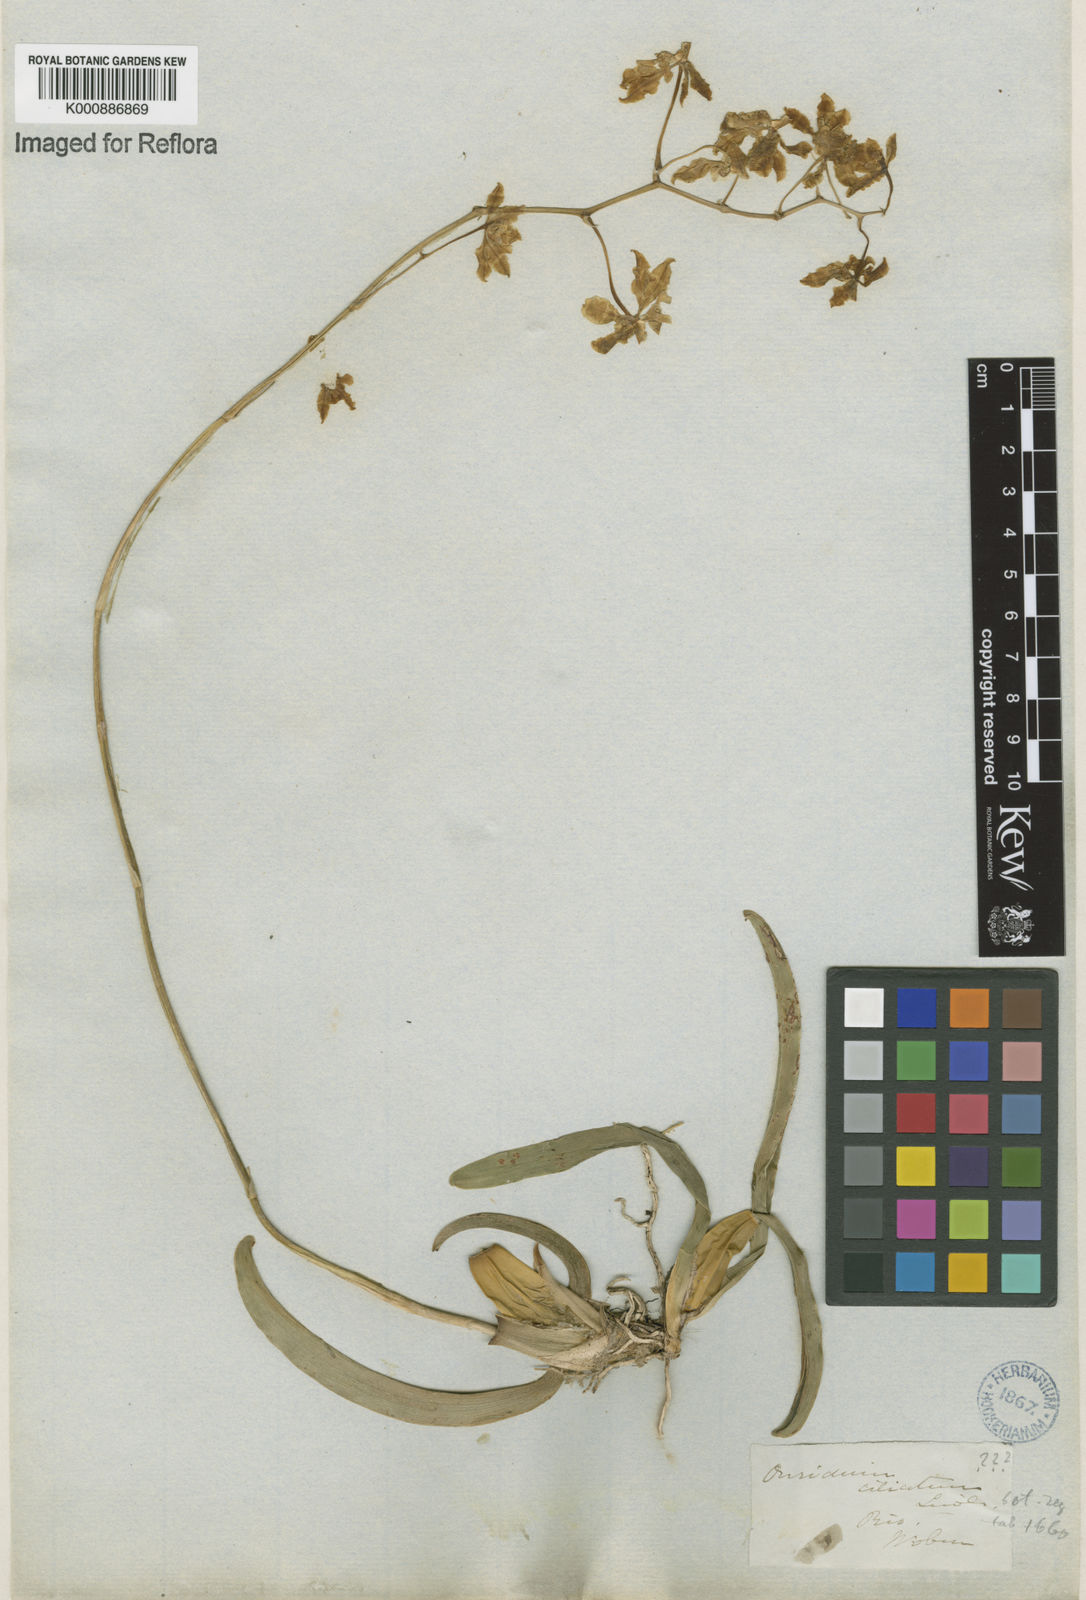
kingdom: Plantae
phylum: Tracheophyta
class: Liliopsida
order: Asparagales
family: Orchidaceae
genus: Gomesa
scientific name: Gomesa ciliata
